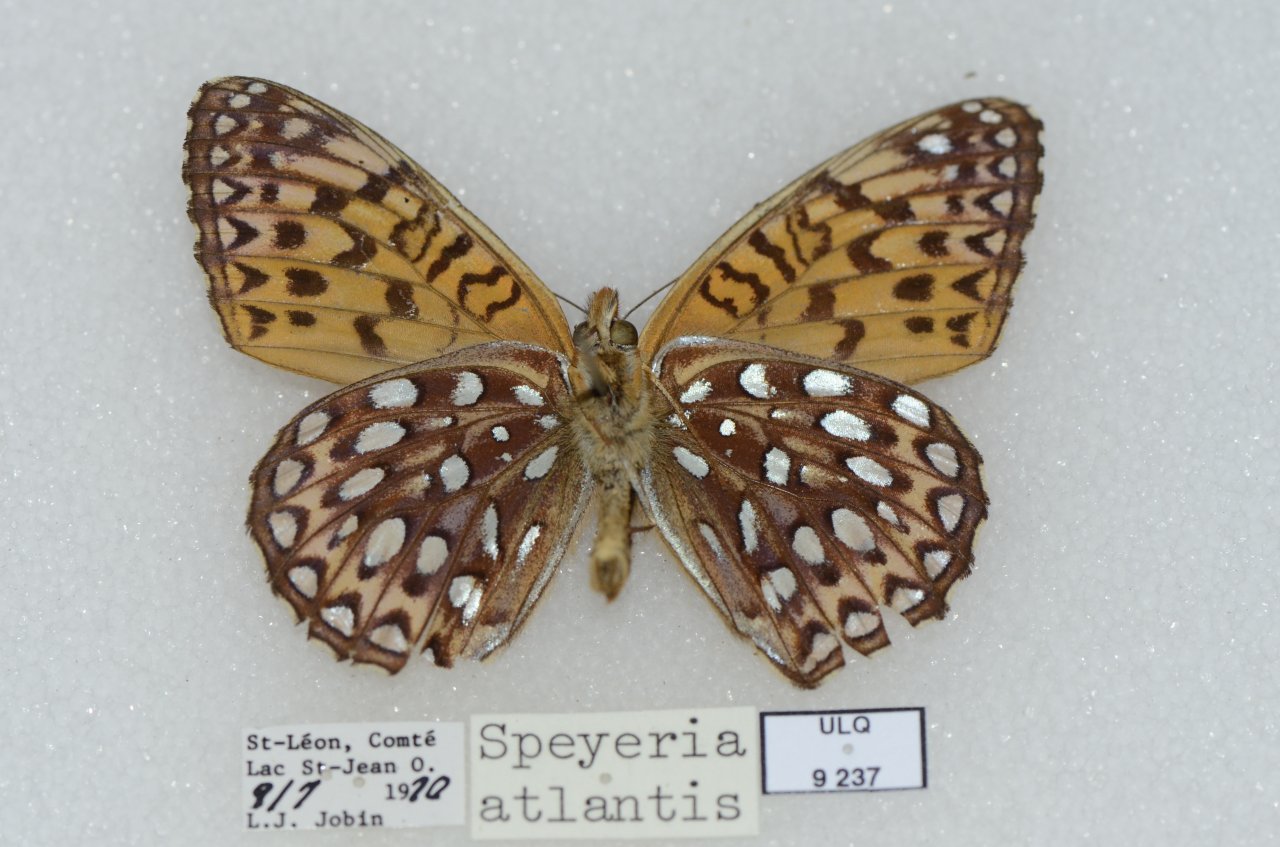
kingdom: Animalia
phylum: Arthropoda
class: Insecta
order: Lepidoptera
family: Nymphalidae
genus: Speyeria
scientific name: Speyeria atlantis
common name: Atlantis Fritillary
